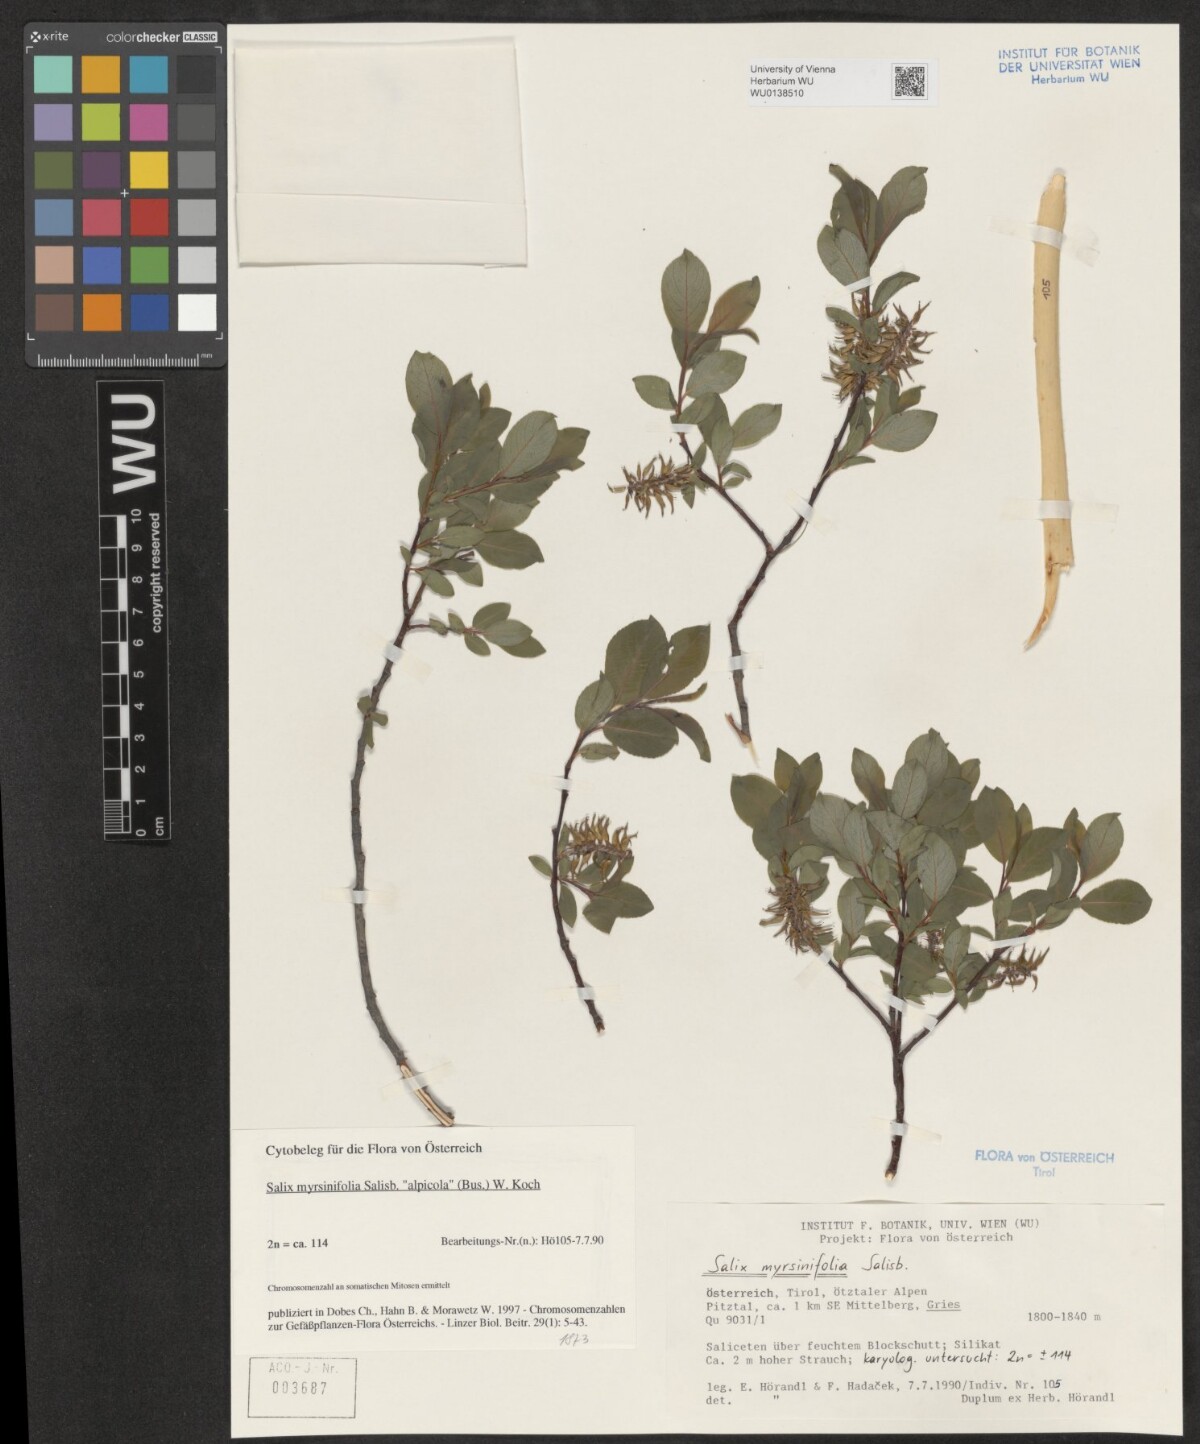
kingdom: Plantae
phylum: Tracheophyta
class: Magnoliopsida
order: Malpighiales
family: Salicaceae
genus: Salix
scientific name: Salix myrsinifolia
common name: Dark-leaved willow
